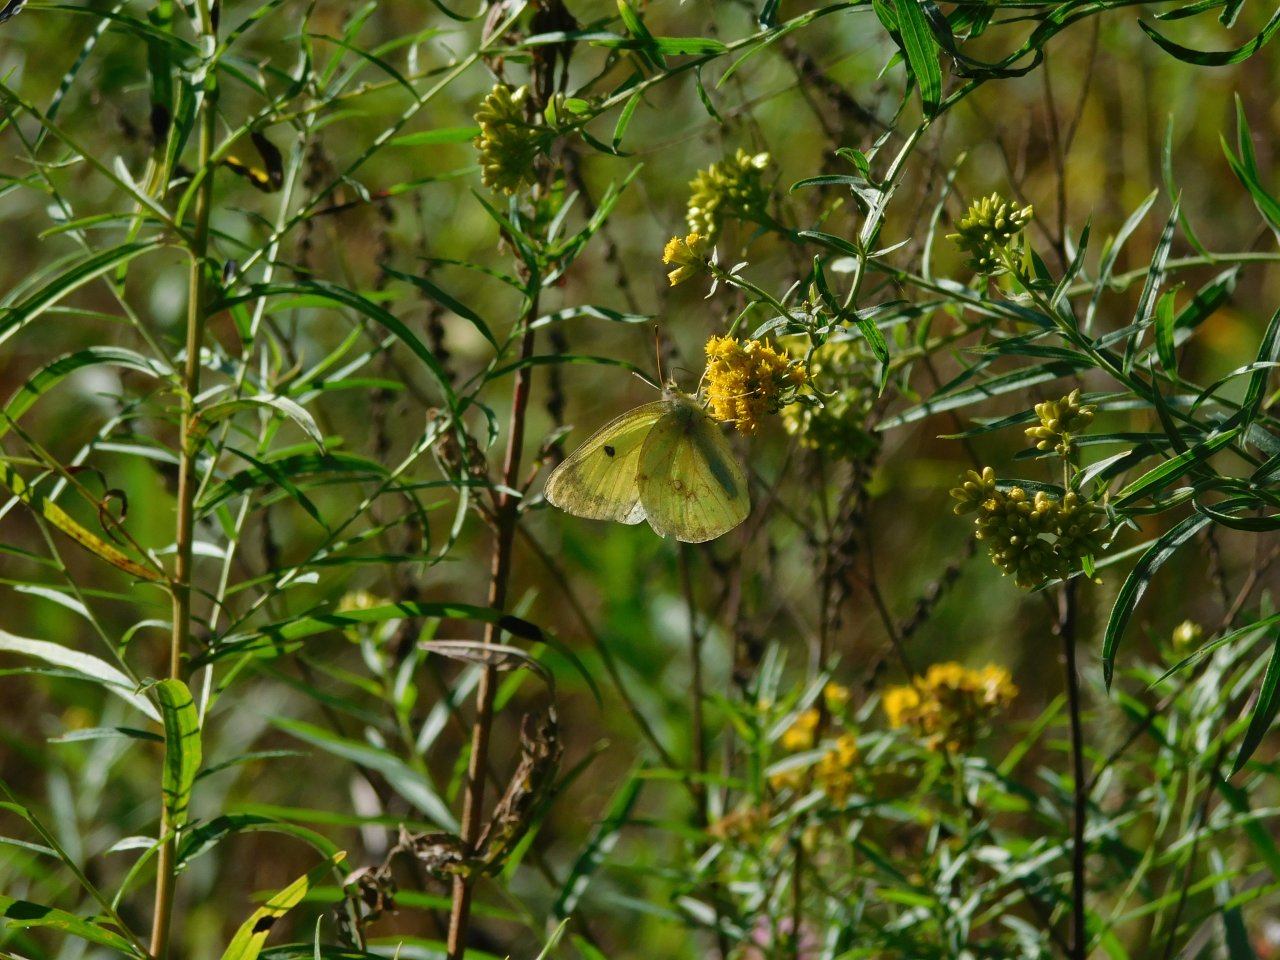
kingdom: Animalia
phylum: Arthropoda
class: Insecta
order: Lepidoptera
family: Pieridae
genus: Colias
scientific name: Colias philodice
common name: Clouded Sulphur
